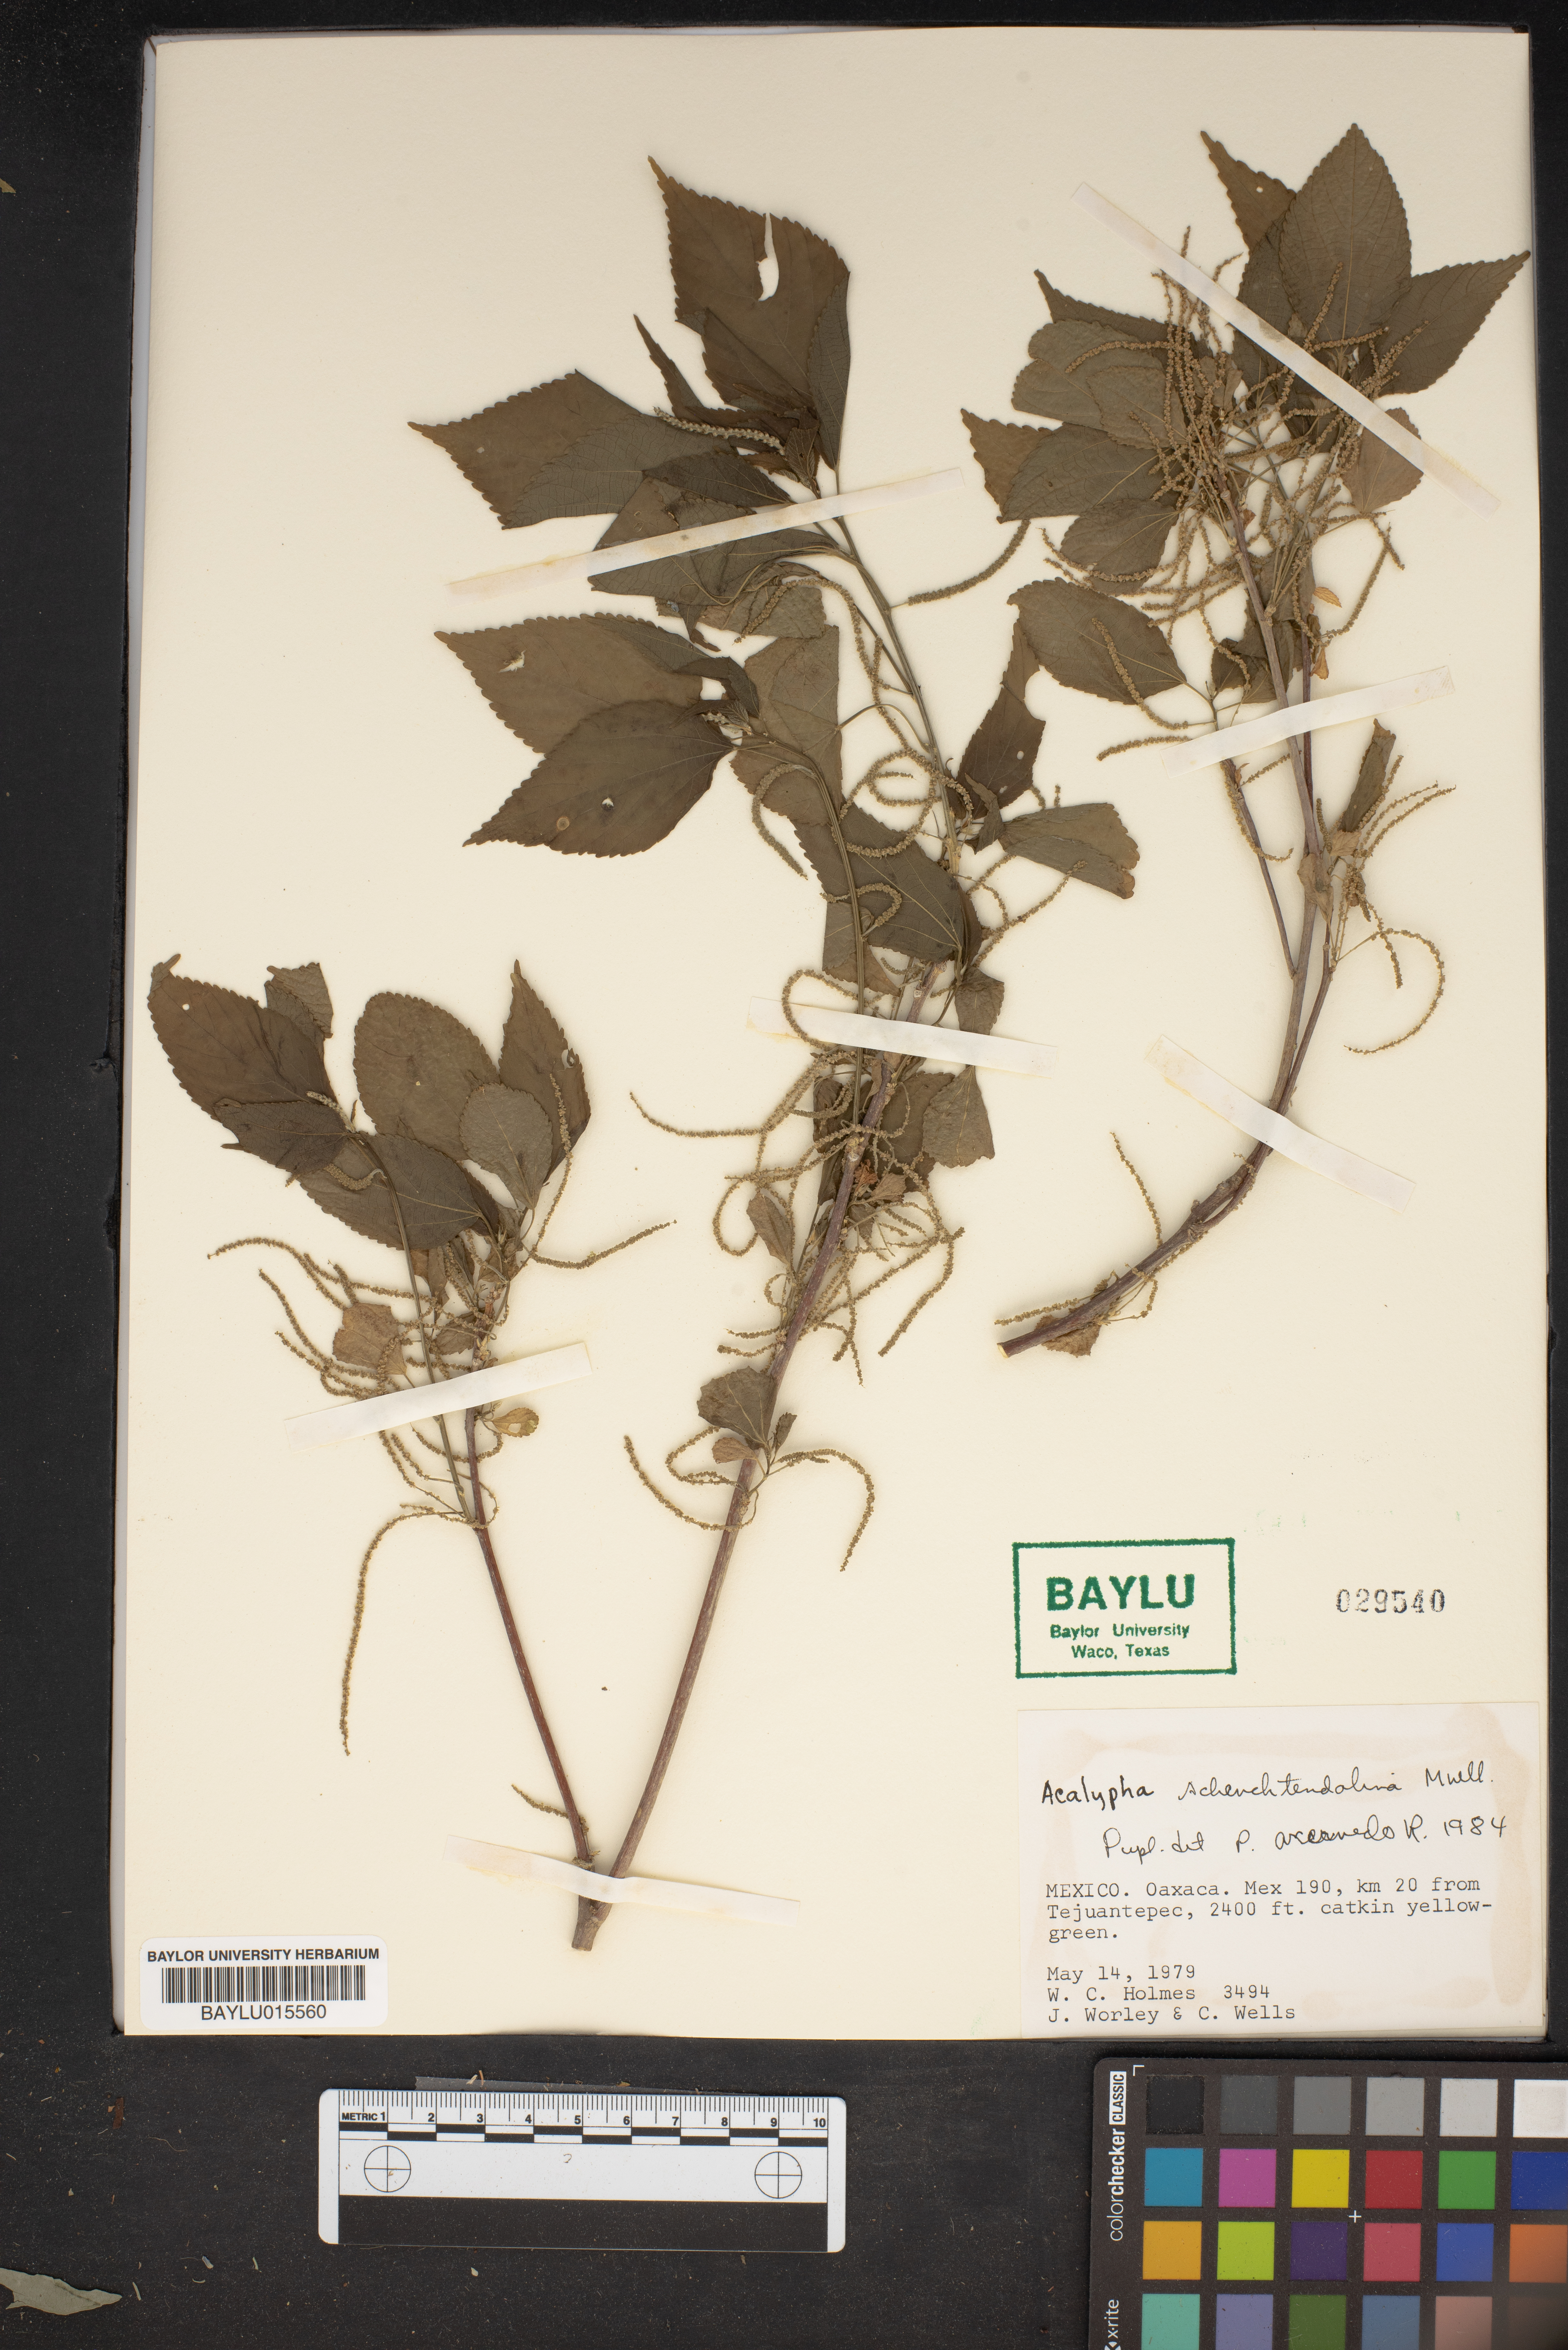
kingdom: Plantae
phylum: Tracheophyta
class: Magnoliopsida
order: Malpighiales
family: Euphorbiaceae
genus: Acalypha
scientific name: Acalypha schlechtendaliana
